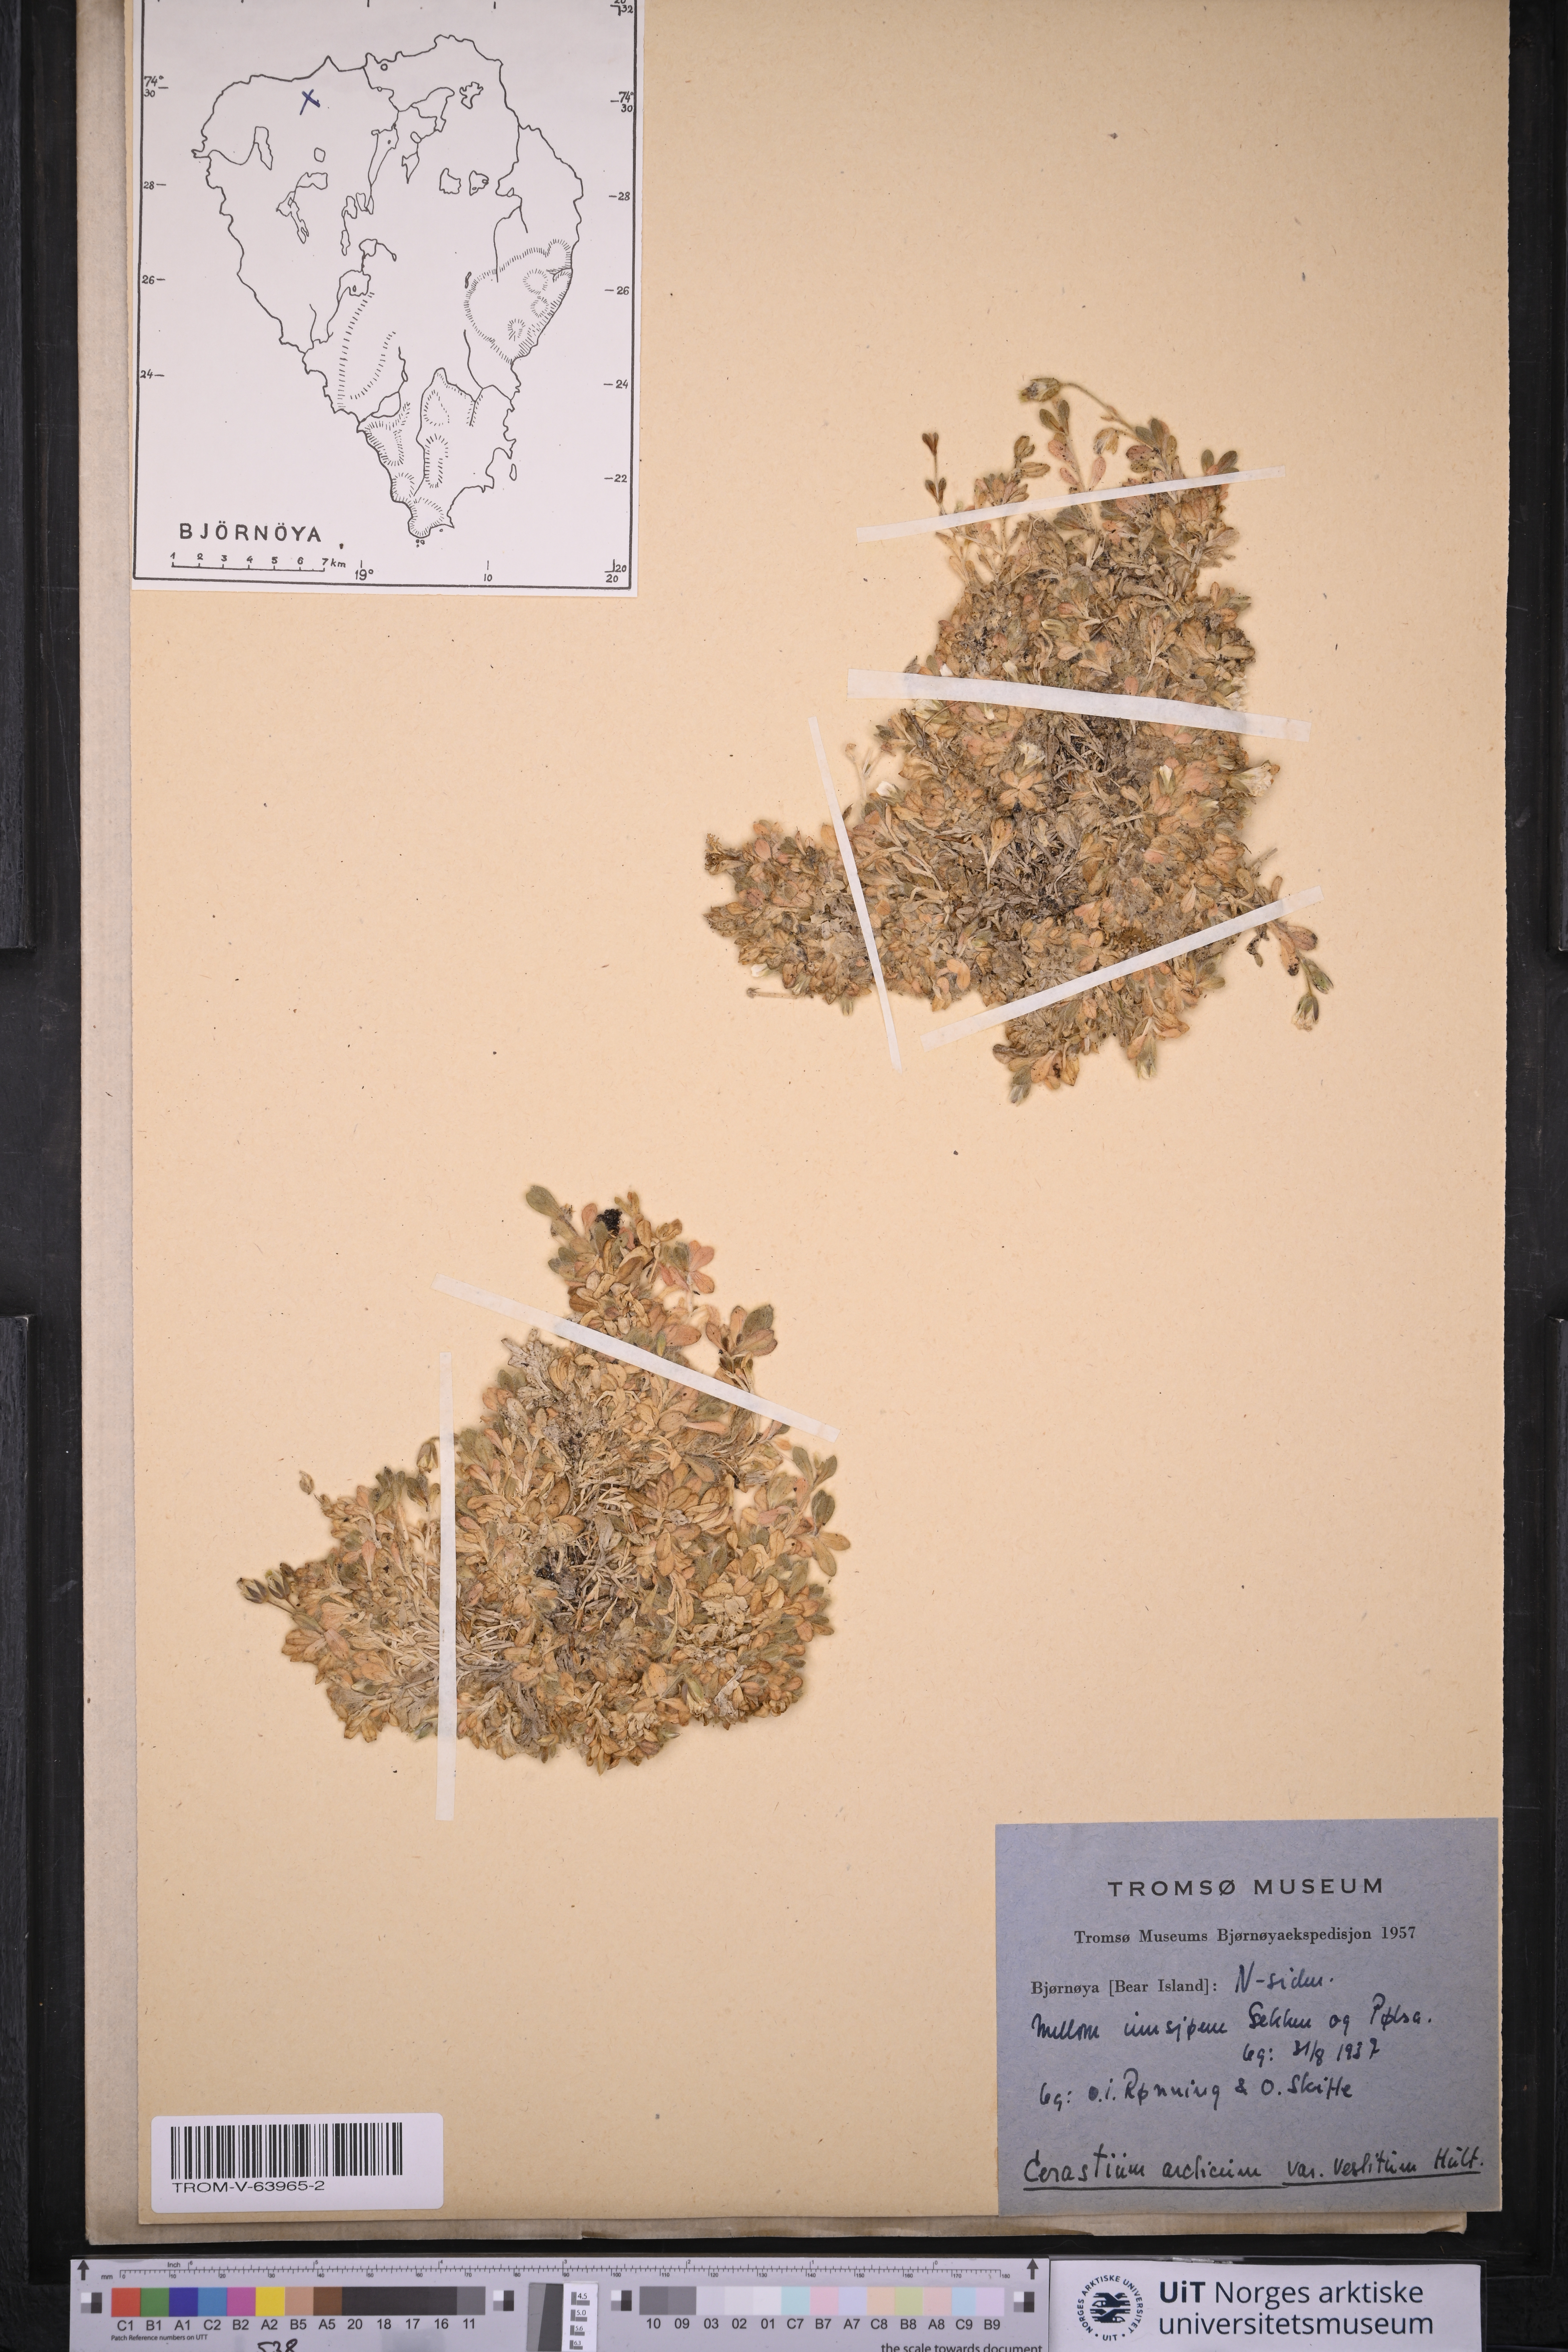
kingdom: Plantae
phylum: Tracheophyta
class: Magnoliopsida
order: Caryophyllales
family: Caryophyllaceae
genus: Cerastium
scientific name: Cerastium arcticum
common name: Arctic mouse-ear
